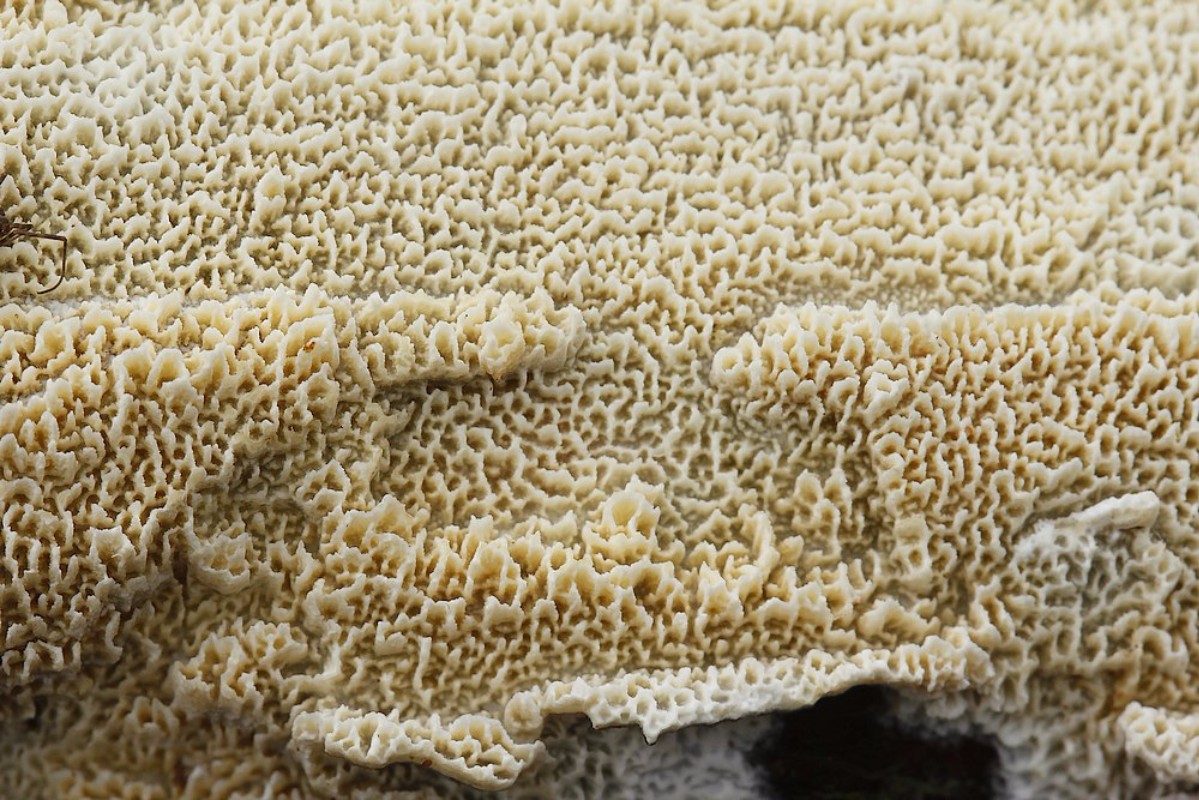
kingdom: Fungi
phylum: Basidiomycota
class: Agaricomycetes
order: Hymenochaetales
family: Schizoporaceae
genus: Schizopora
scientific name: Schizopora paradoxa
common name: hvid tandsvamp
